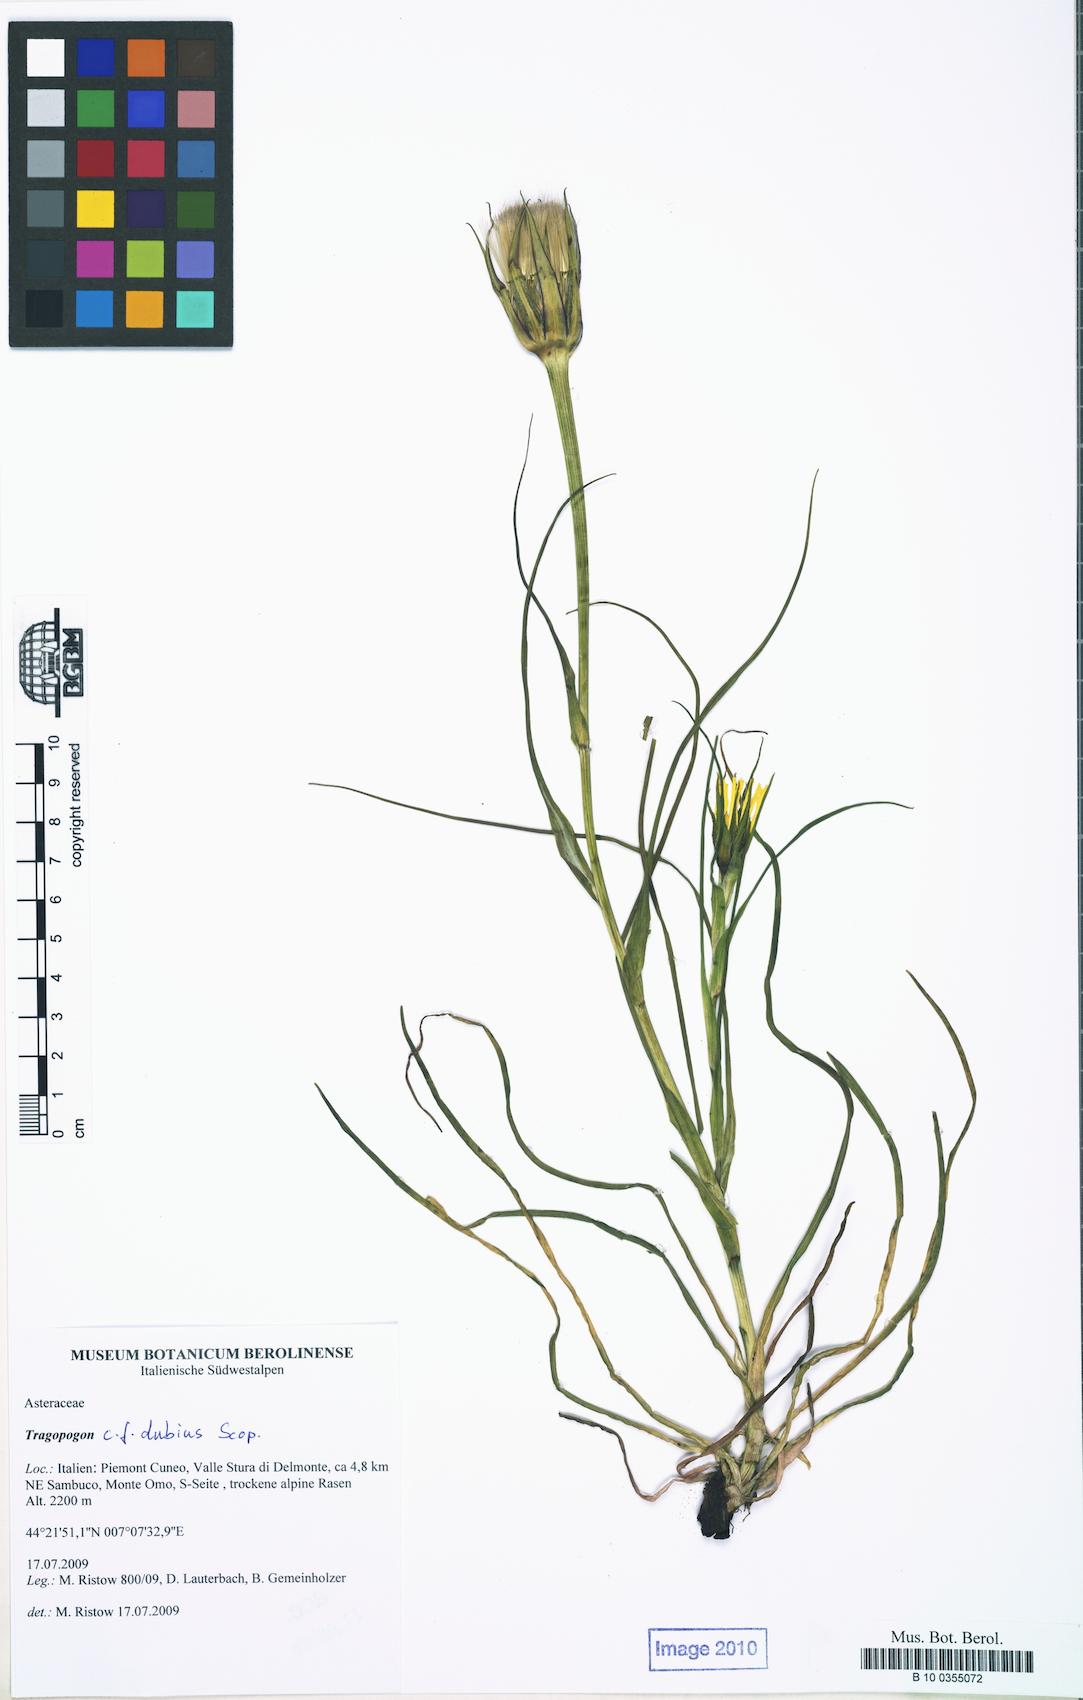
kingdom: Plantae
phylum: Tracheophyta
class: Magnoliopsida
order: Asterales
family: Asteraceae
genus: Tragopogon
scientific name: Tragopogon dubius
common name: Yellow salsify
